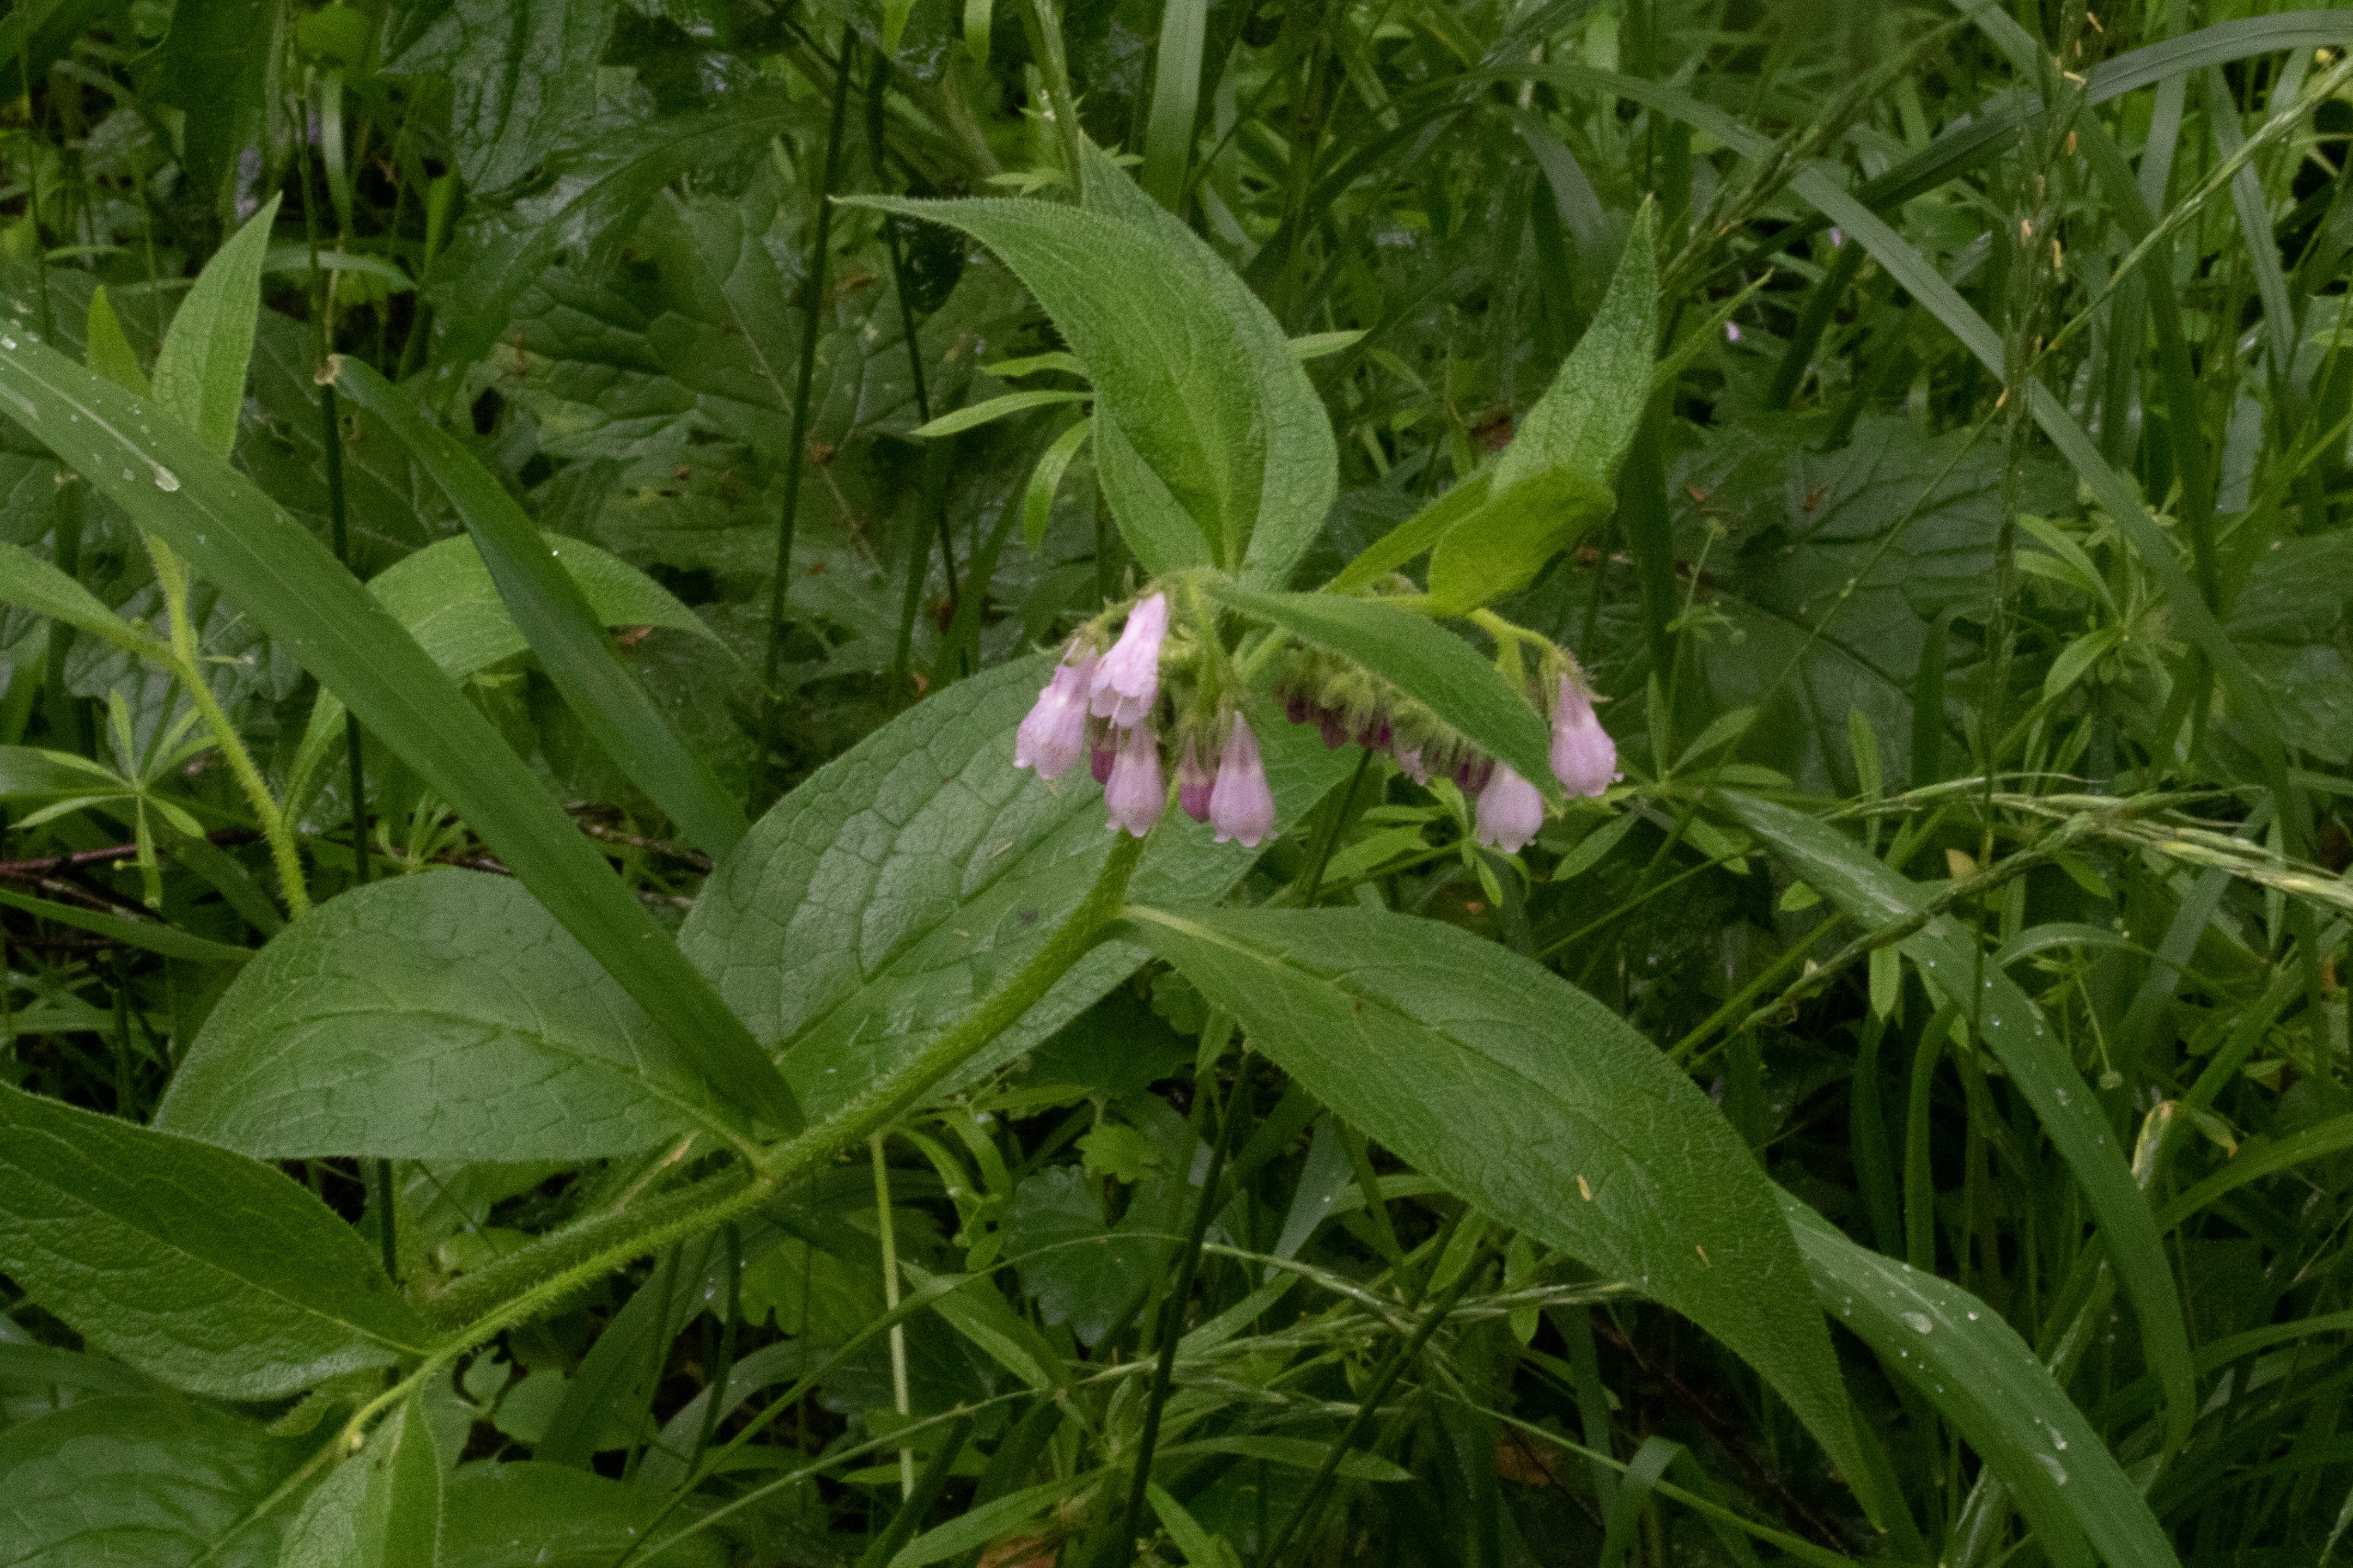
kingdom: Plantae
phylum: Tracheophyta
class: Magnoliopsida
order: Boraginales
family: Boraginaceae
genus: Symphytum
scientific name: Symphytum uplandicum
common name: Foder-kulsukker
